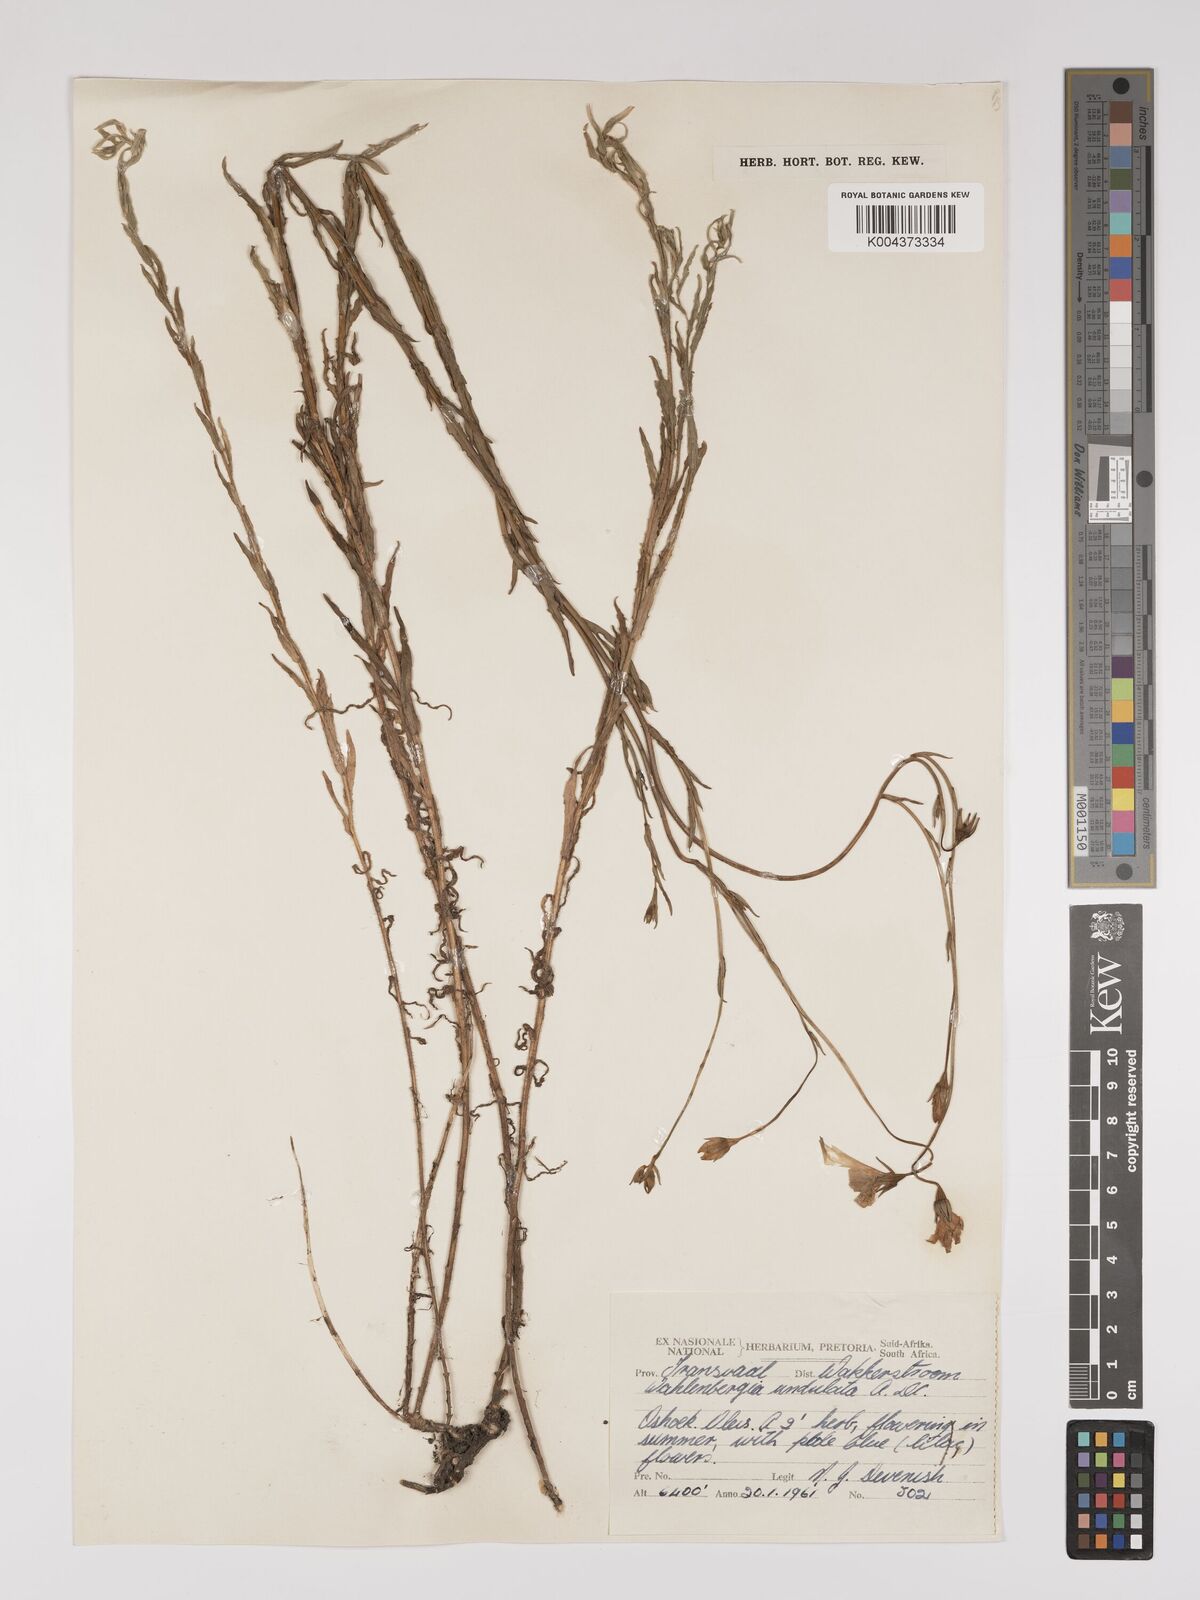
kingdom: Plantae
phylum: Tracheophyta
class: Magnoliopsida
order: Asterales
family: Campanulaceae
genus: Wahlenbergia
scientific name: Wahlenbergia undulata
